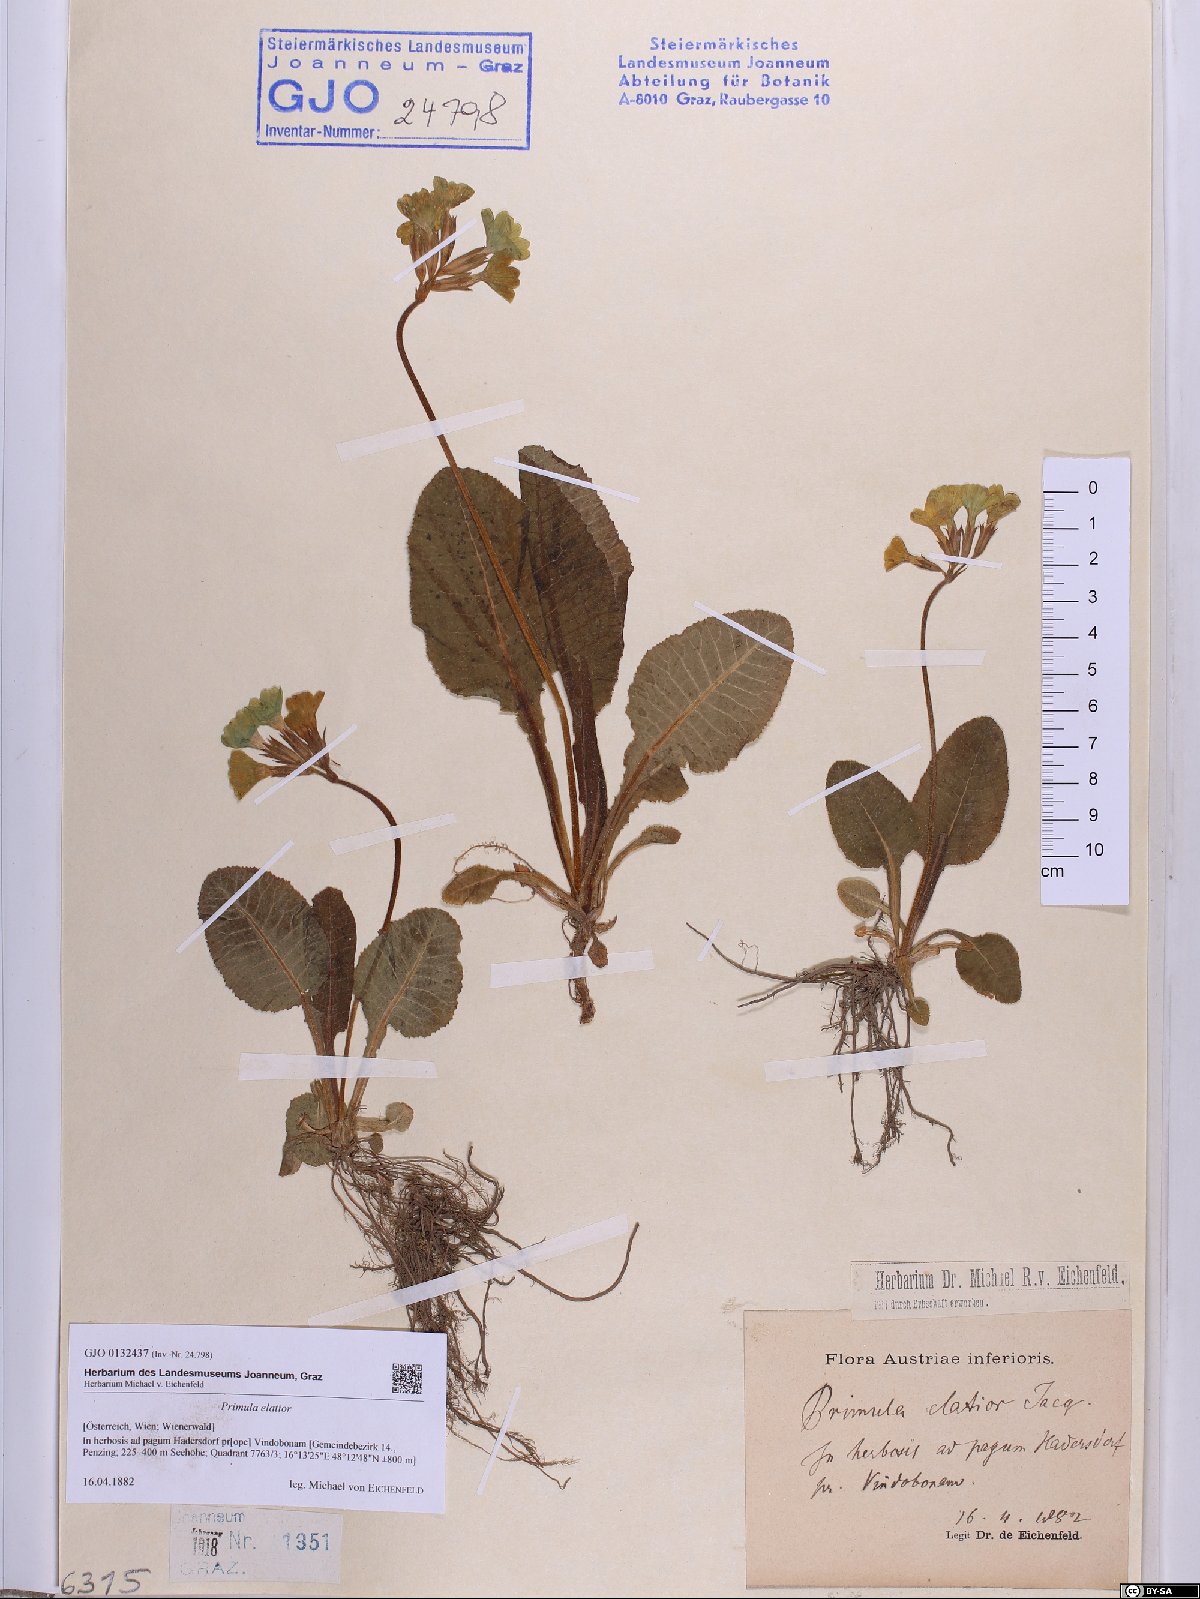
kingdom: Plantae
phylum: Tracheophyta
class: Magnoliopsida
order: Ericales
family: Primulaceae
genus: Primula
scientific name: Primula elatior
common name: Oxlip
